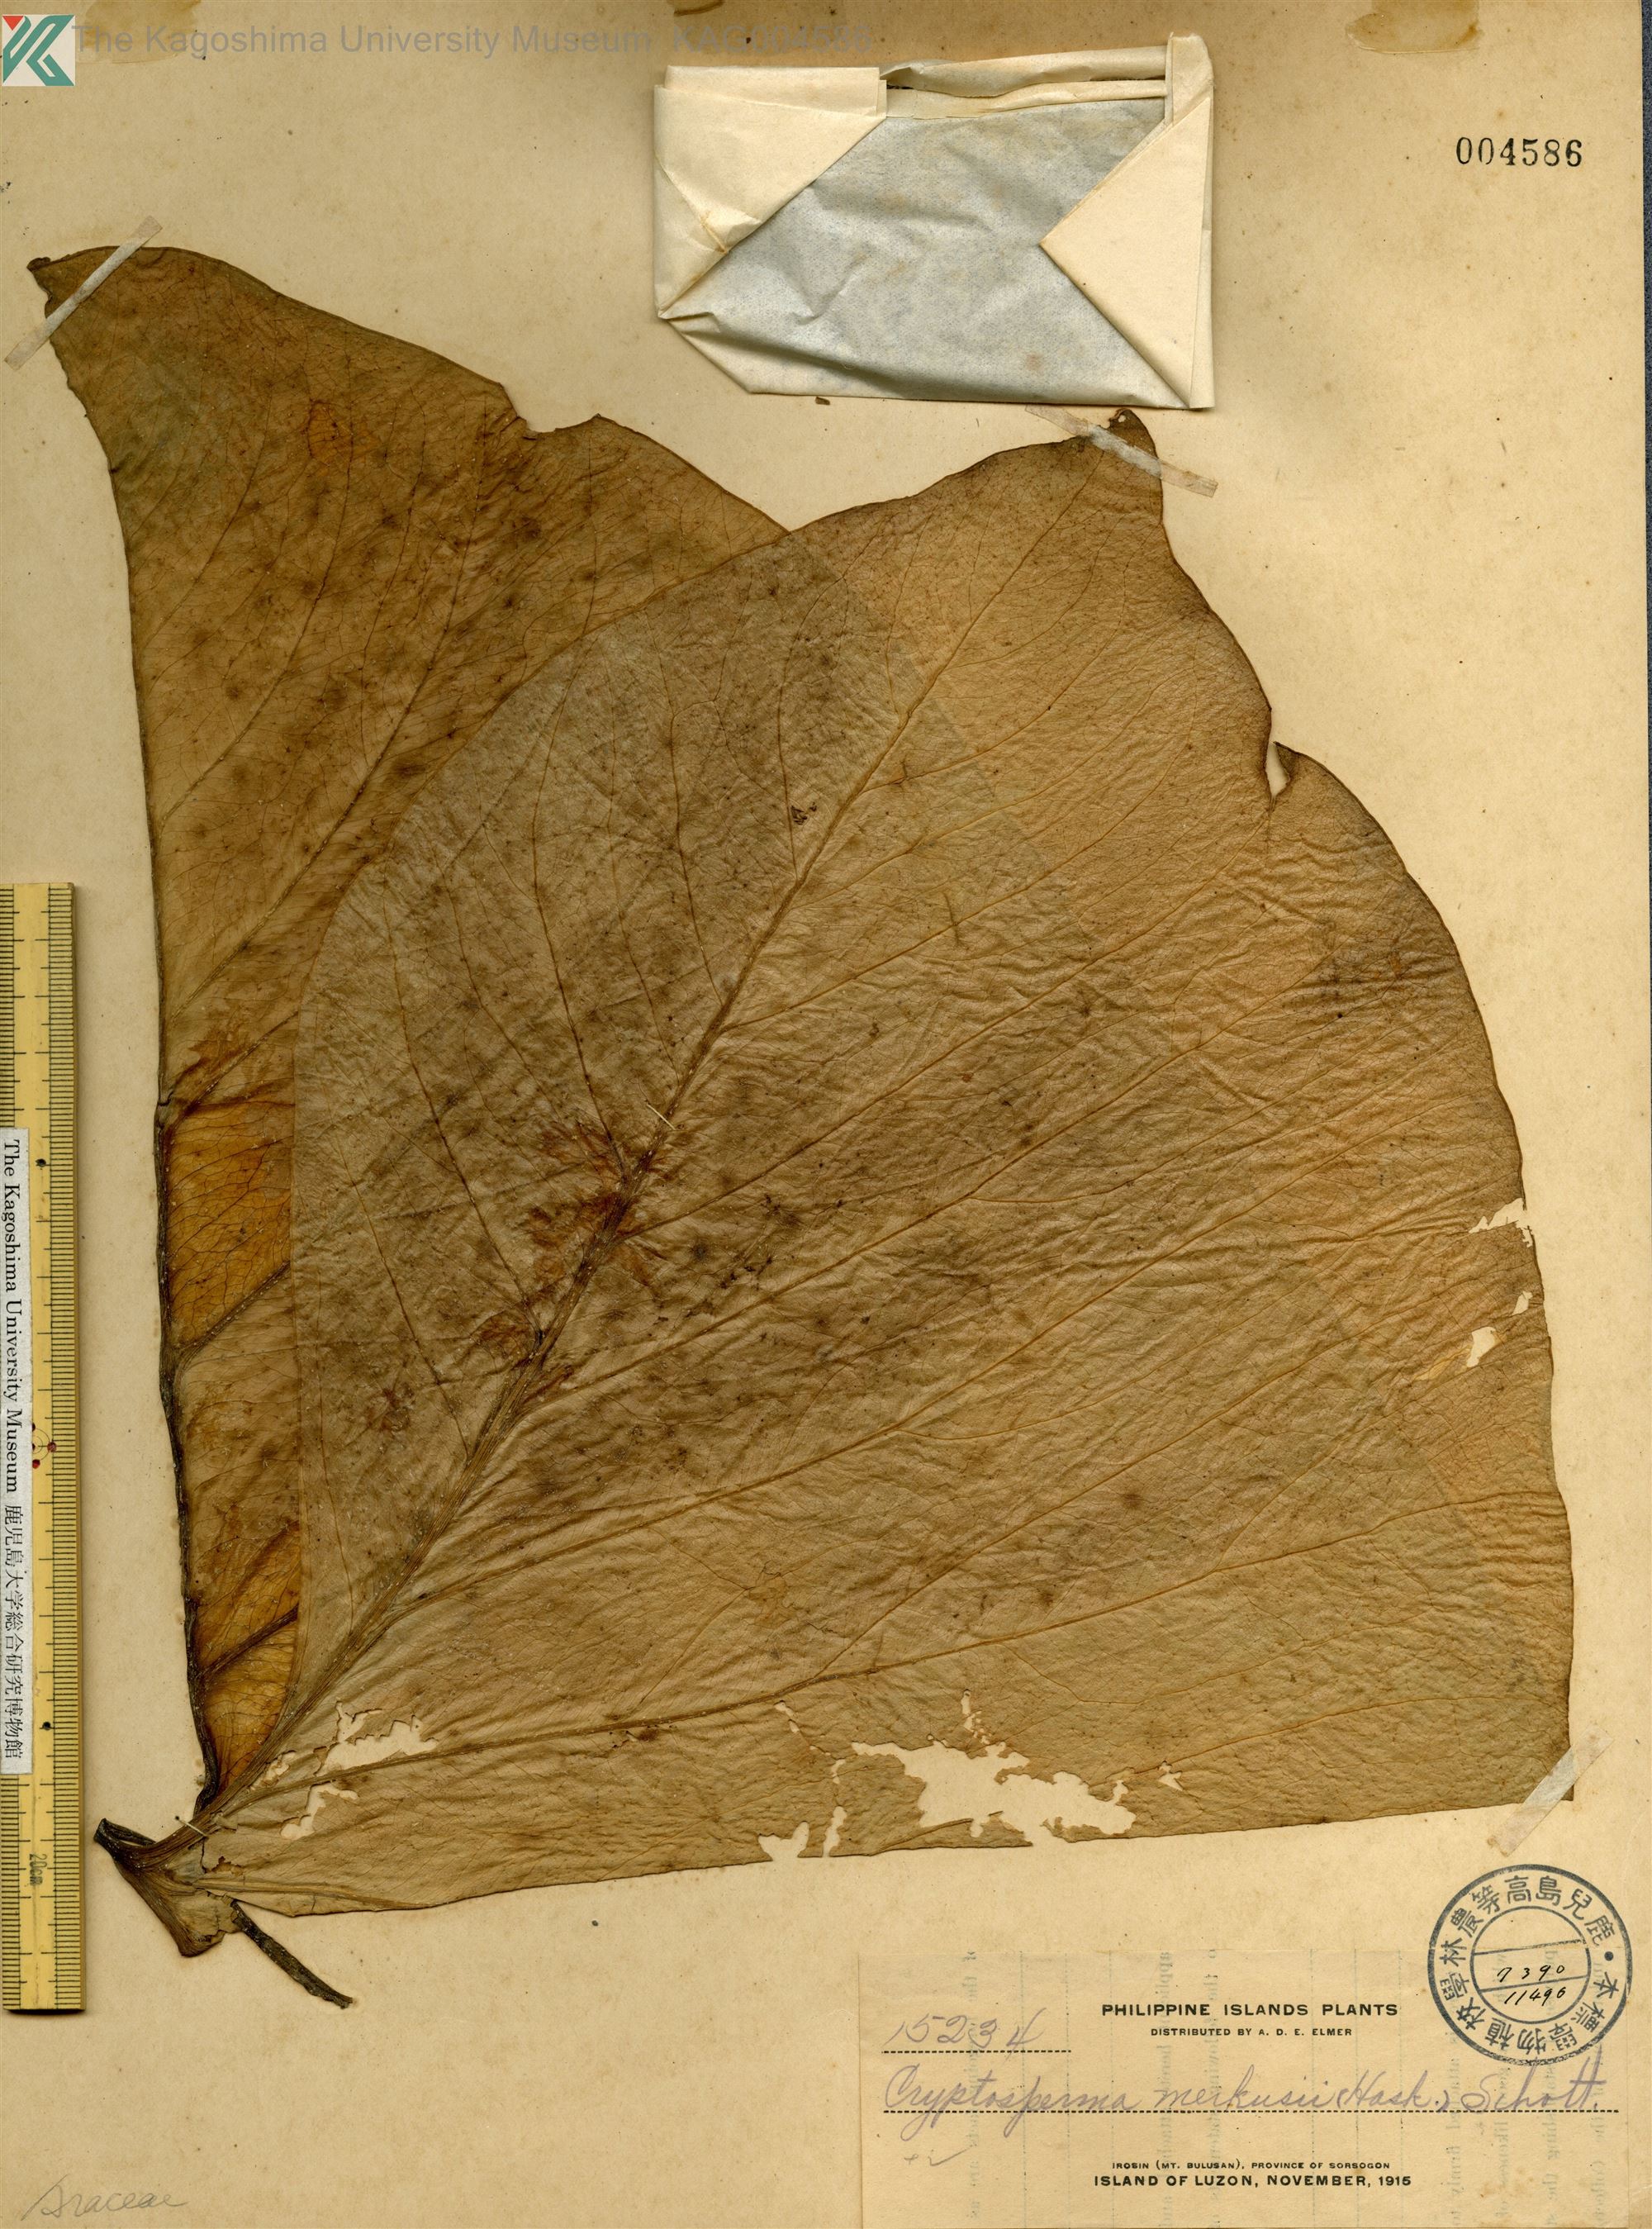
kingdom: Plantae
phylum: Tracheophyta
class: Liliopsida
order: Alismatales
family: Araceae
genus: Cyrtosperma
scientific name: Cyrtosperma merkusii
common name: Giant swamp-taro
